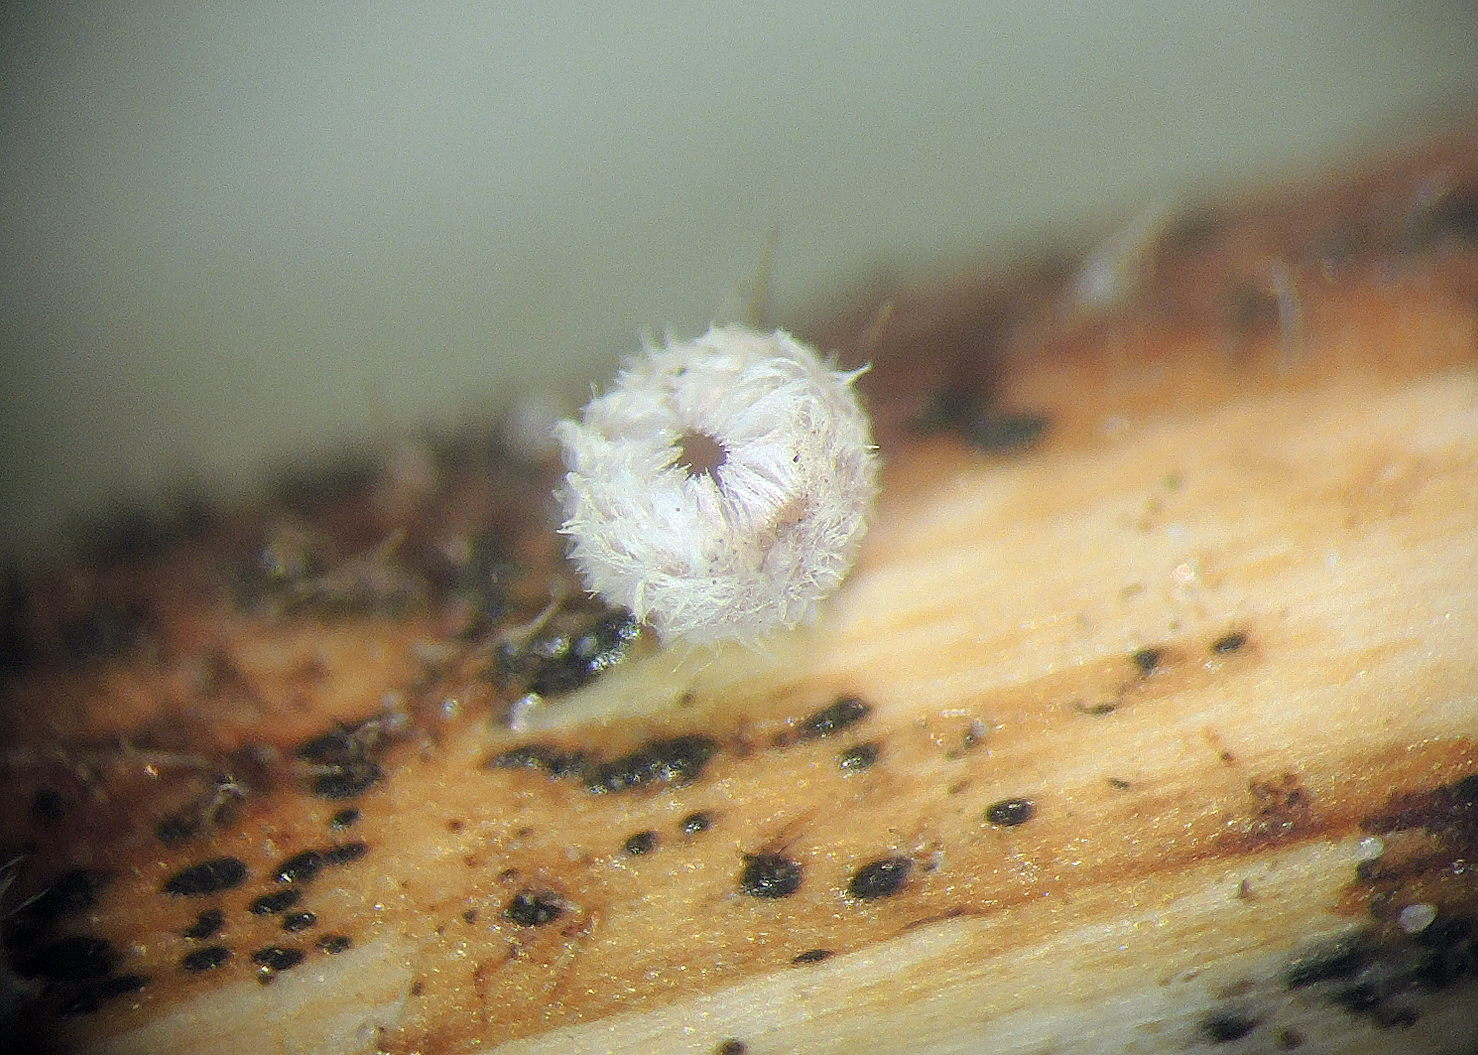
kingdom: Fungi
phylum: Ascomycota
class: Leotiomycetes
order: Helotiales
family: Lachnaceae
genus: Lachnum
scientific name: Lachnum mollissimum
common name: flødefarvet frynseskive
